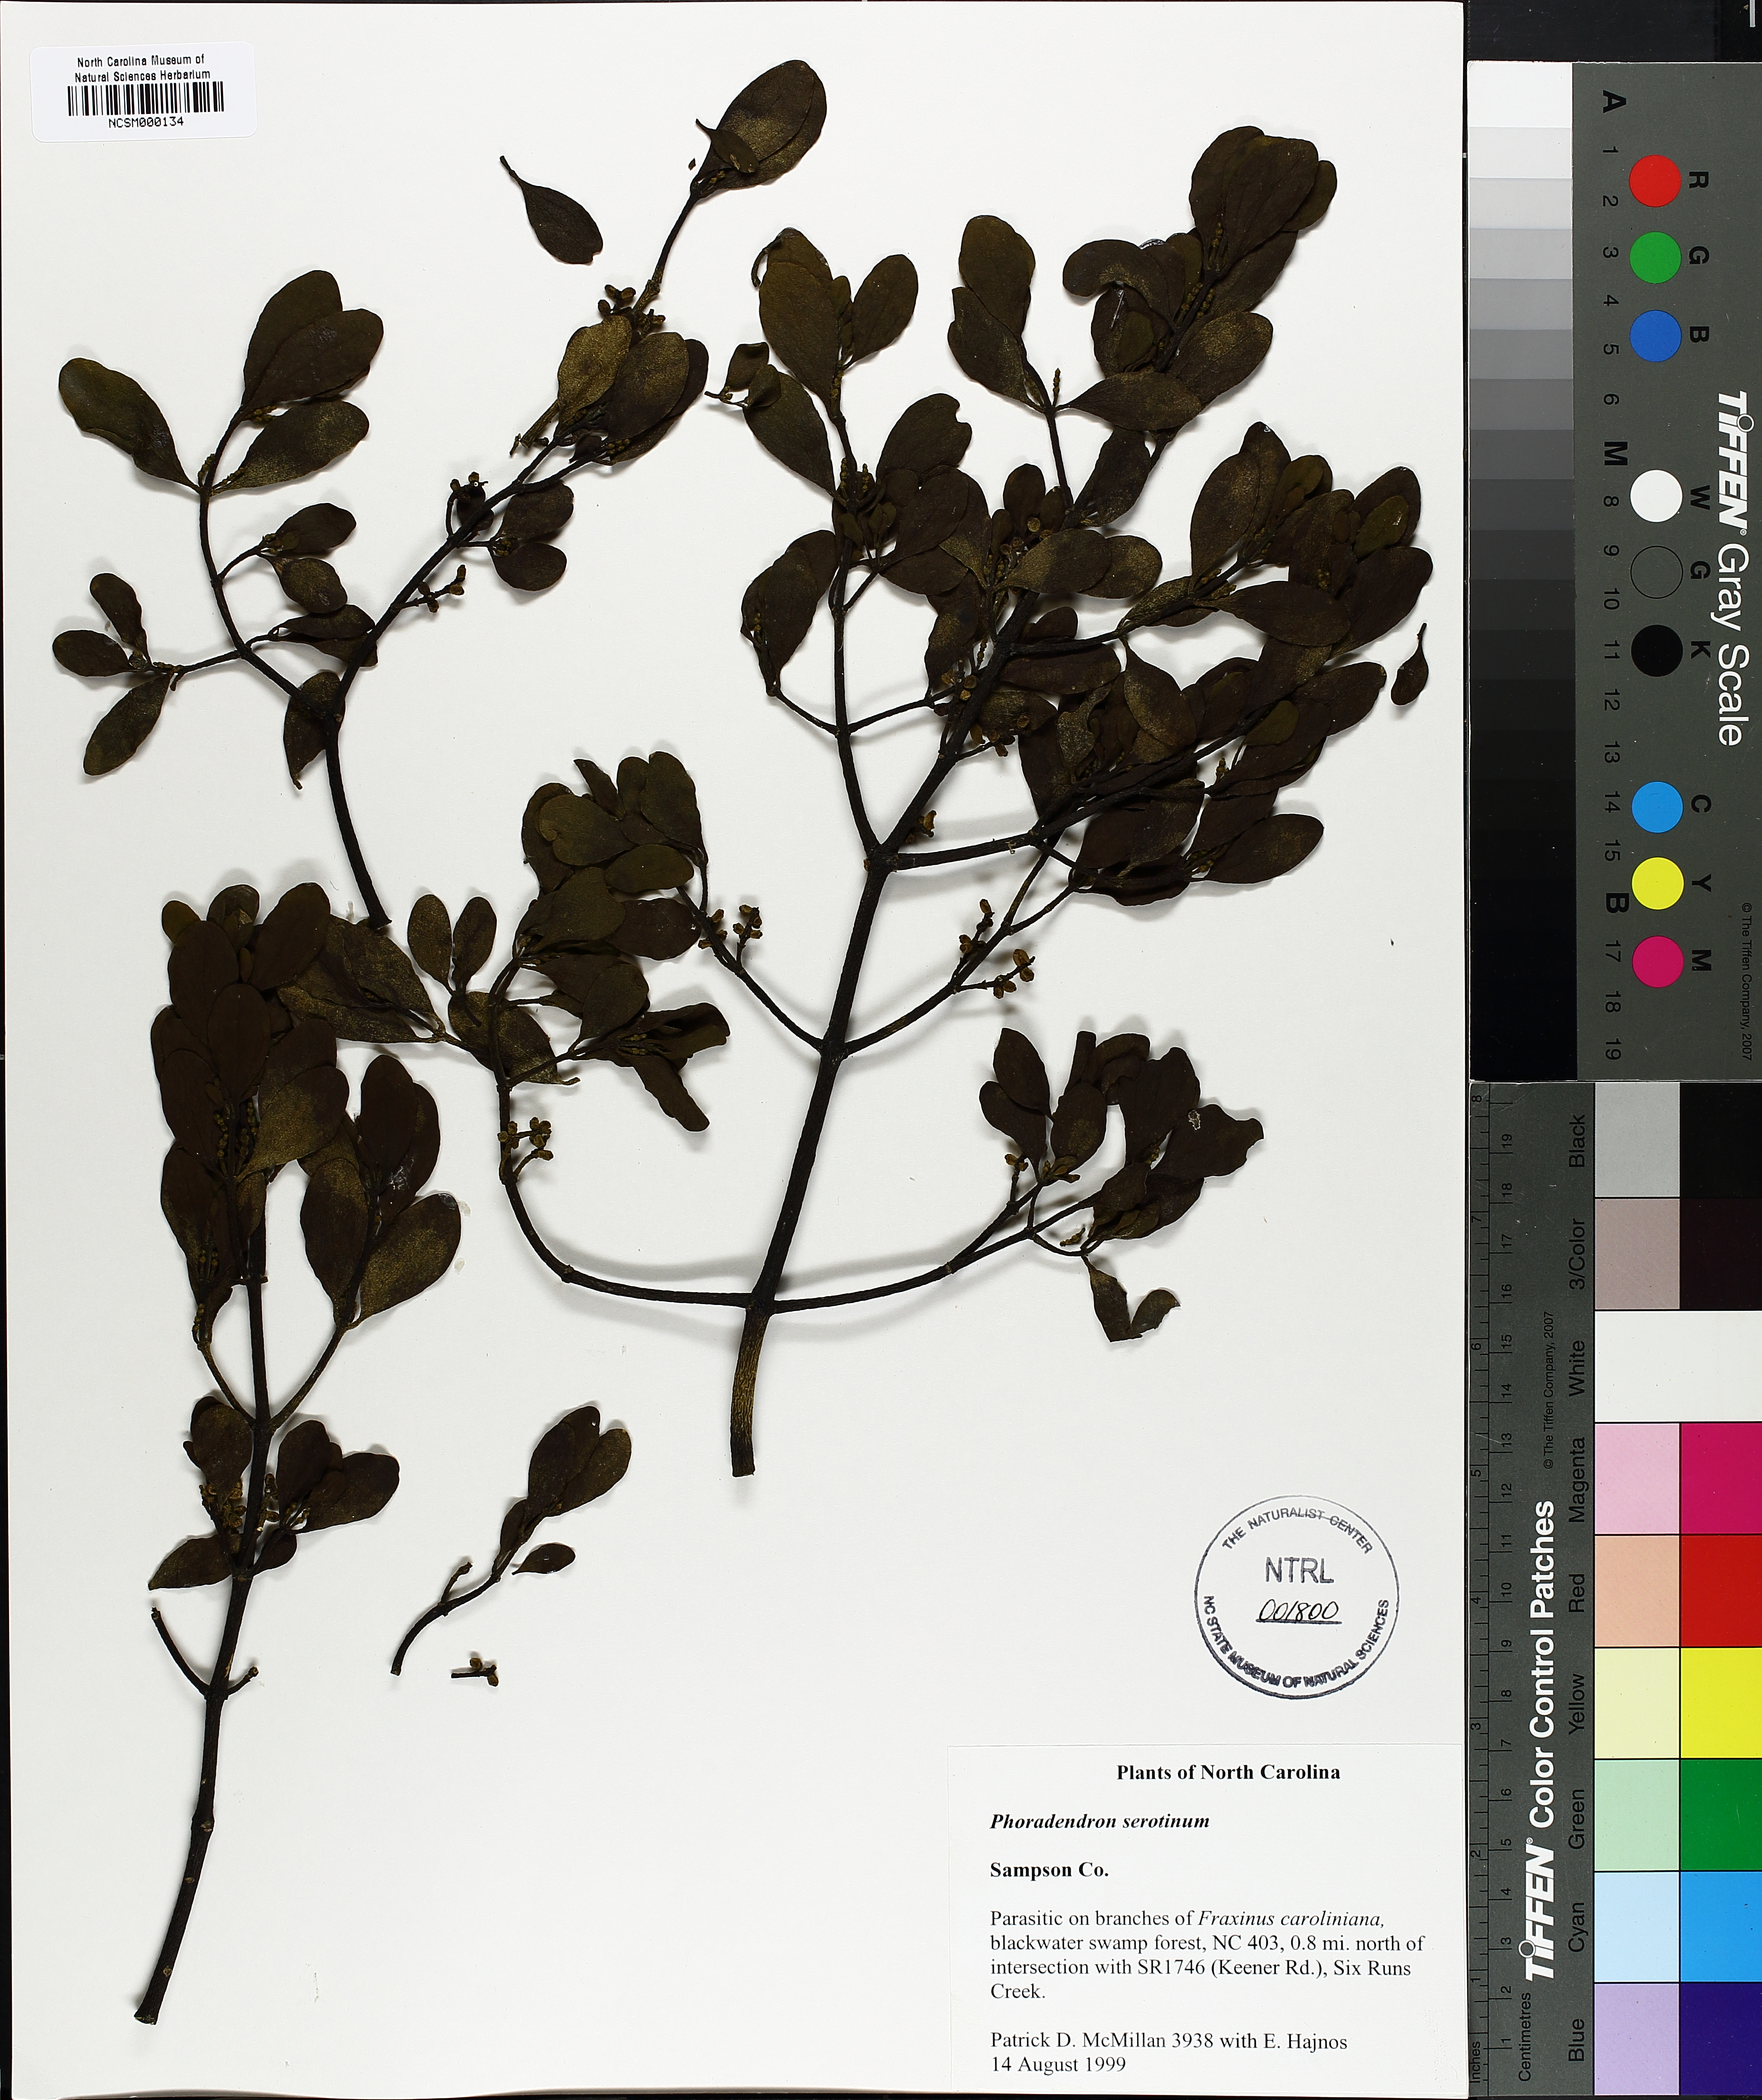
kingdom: Plantae
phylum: Tracheophyta
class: Magnoliopsida
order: Santalales
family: Viscaceae
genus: Phoradendron
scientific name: Phoradendron leucarpum
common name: Pacific mistletoe
